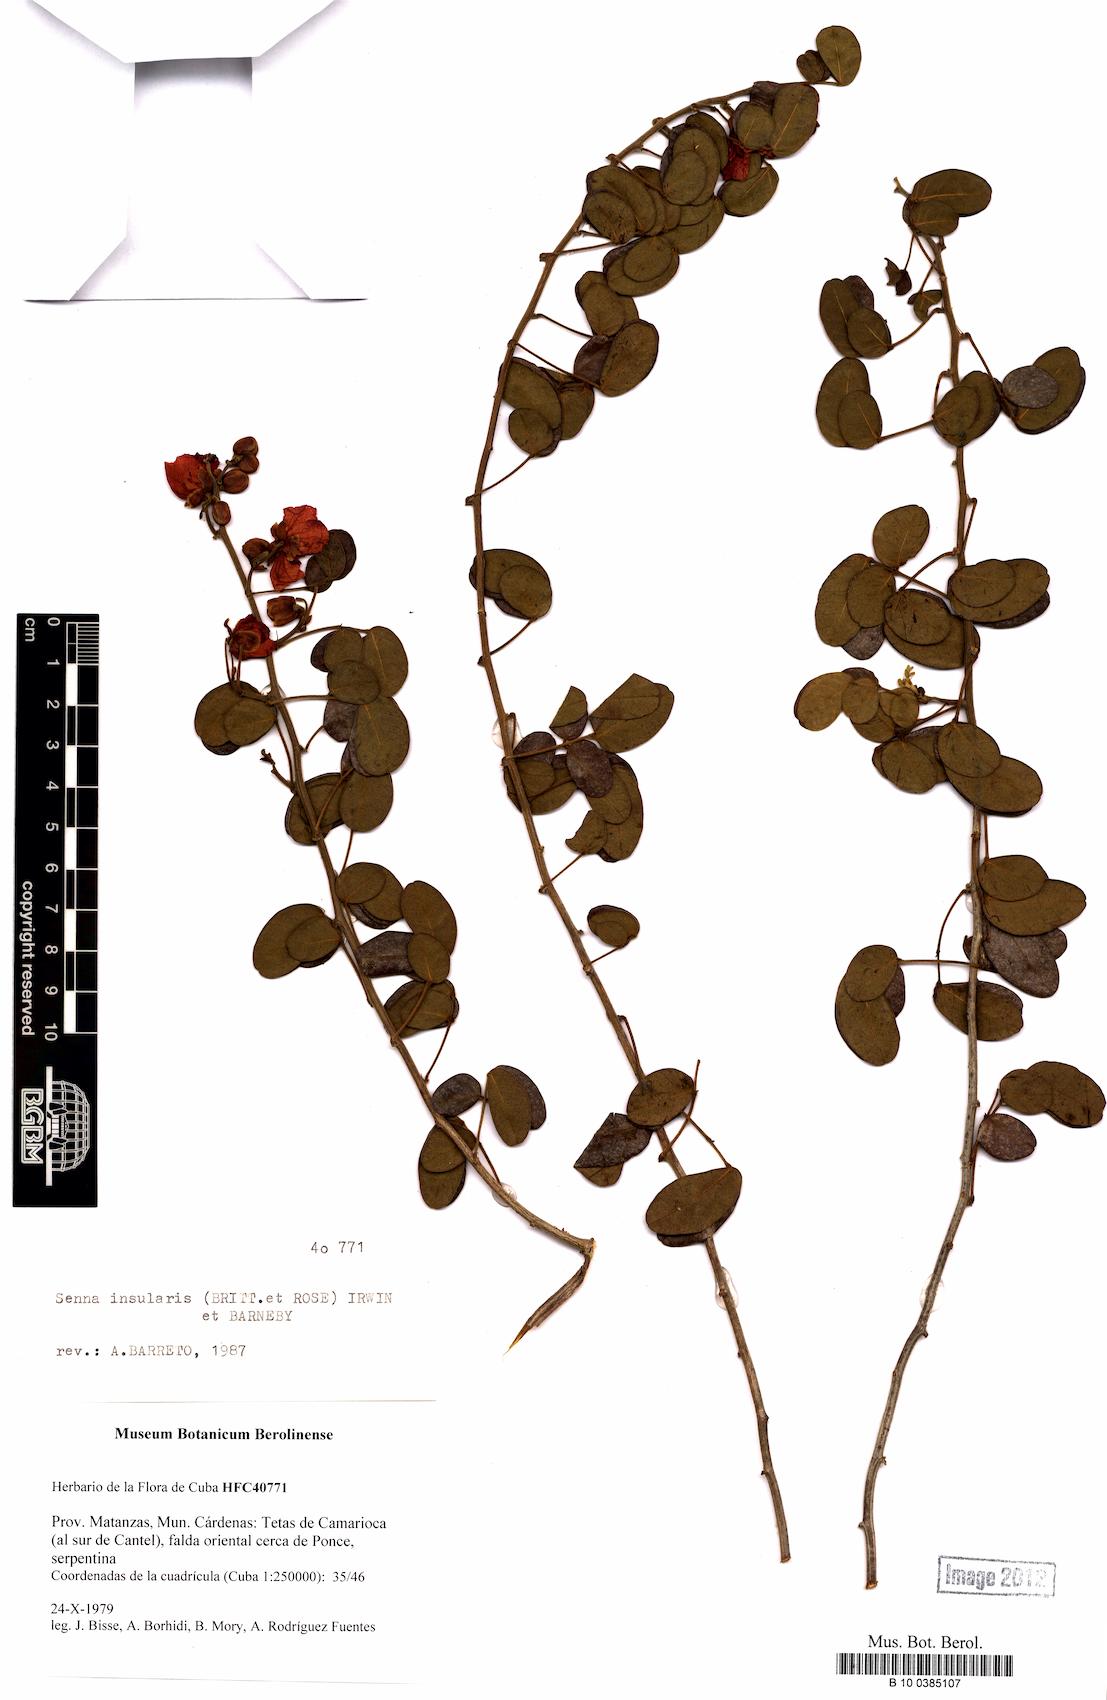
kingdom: Plantae
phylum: Tracheophyta
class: Magnoliopsida
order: Fabales
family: Fabaceae
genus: Senna
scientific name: Senna insularis
